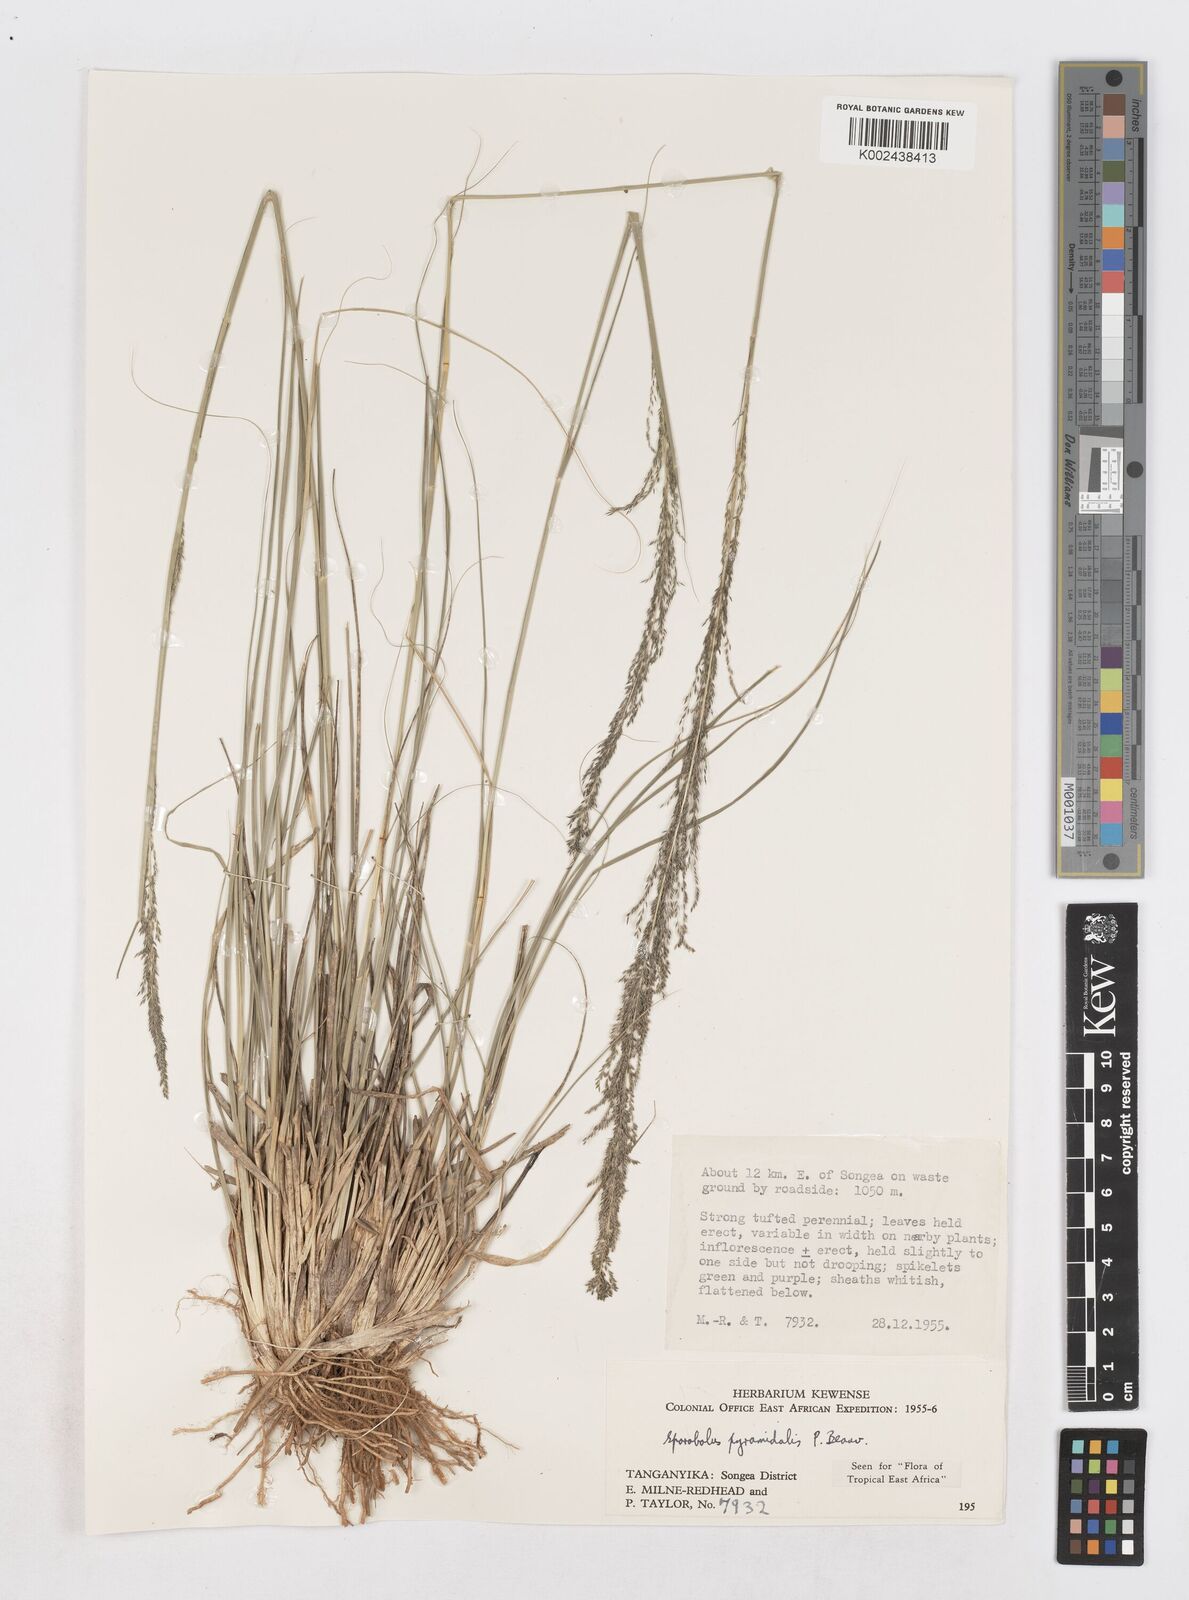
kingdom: Plantae
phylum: Tracheophyta
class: Liliopsida
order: Poales
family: Poaceae
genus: Sporobolus
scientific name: Sporobolus pyramidalis
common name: West indian dropseed
